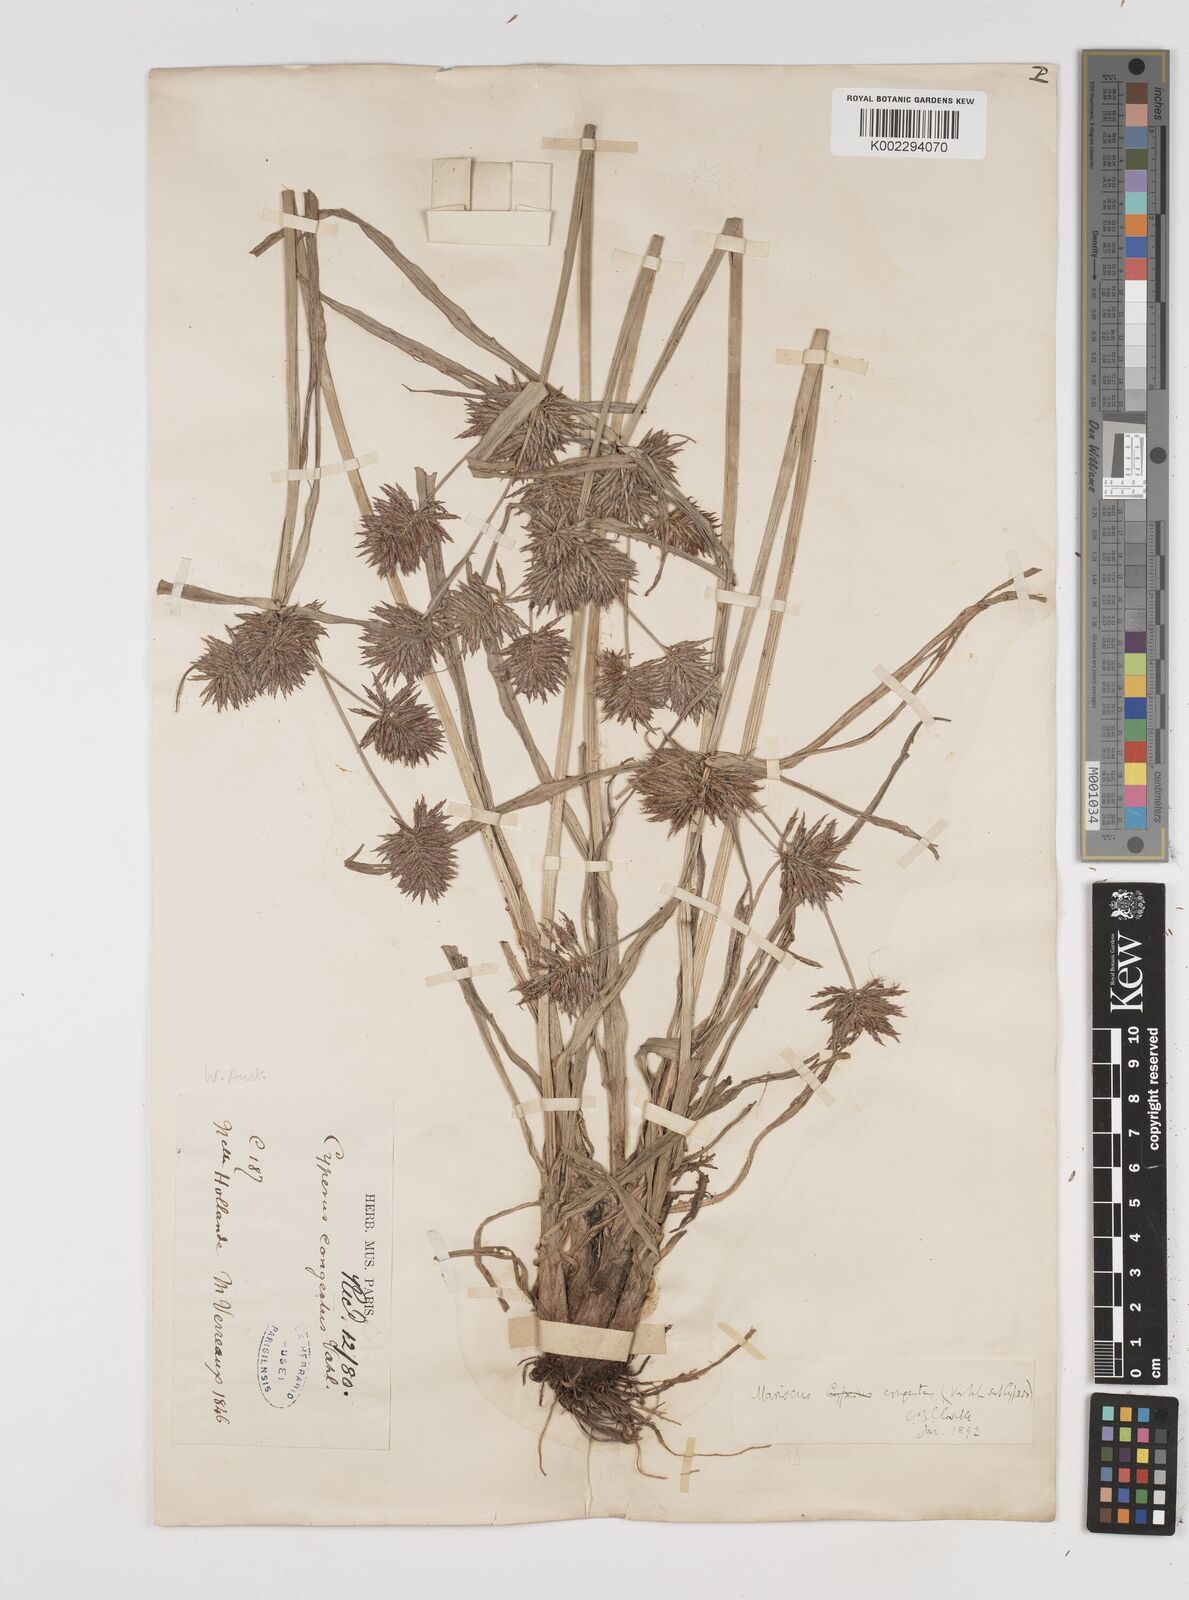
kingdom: Plantae
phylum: Tracheophyta
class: Liliopsida
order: Poales
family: Cyperaceae
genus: Cyperus
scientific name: Cyperus congestus
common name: Dense flat sedge
